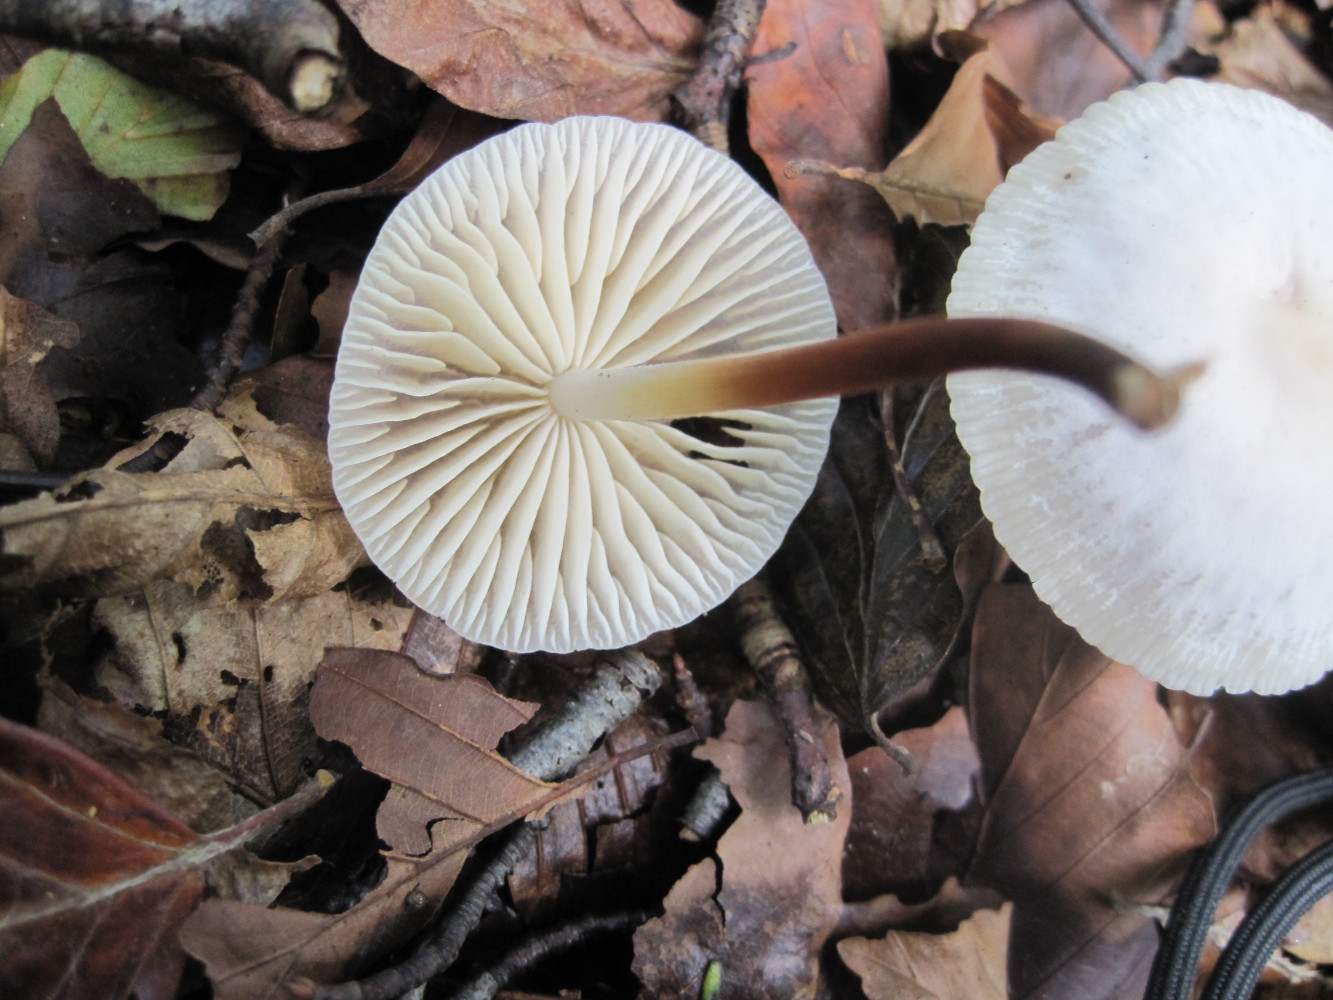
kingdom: Fungi
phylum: Basidiomycota
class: Agaricomycetes
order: Agaricales
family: Marasmiaceae
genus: Marasmius
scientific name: Marasmius wynneae
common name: hvælvet bruskhat
